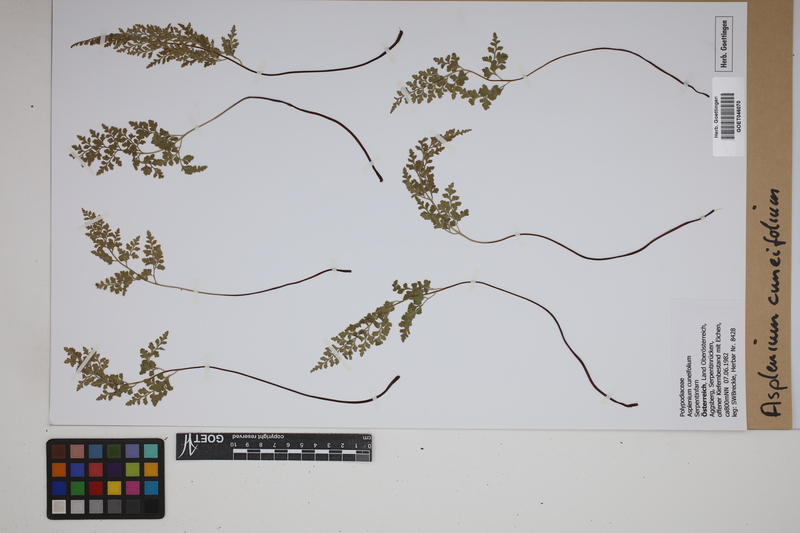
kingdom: Plantae
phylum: Tracheophyta
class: Polypodiopsida
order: Polypodiales
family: Aspleniaceae
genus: Asplenium
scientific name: Asplenium cuneifolium
